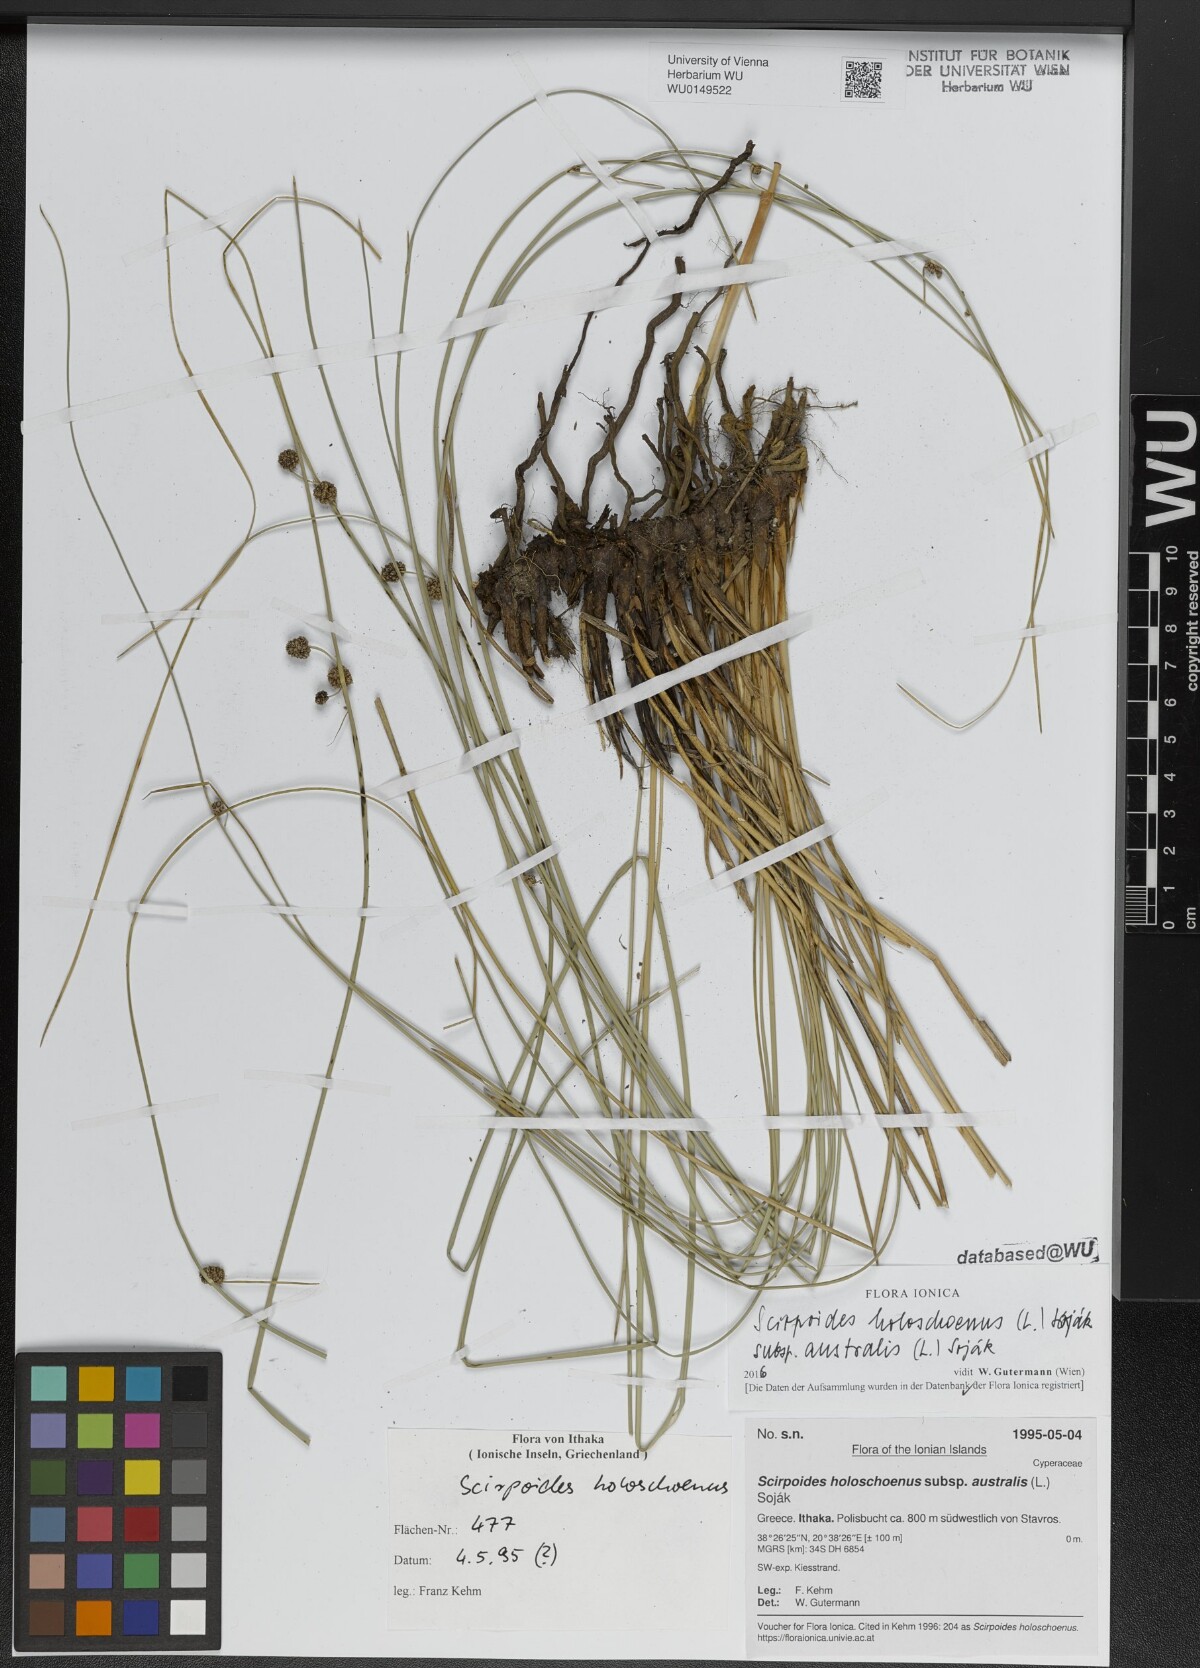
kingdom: Plantae
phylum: Tracheophyta
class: Liliopsida
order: Poales
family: Cyperaceae
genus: Scirpoides
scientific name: Scirpoides holoschoenus
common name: Round-headed club-rush
